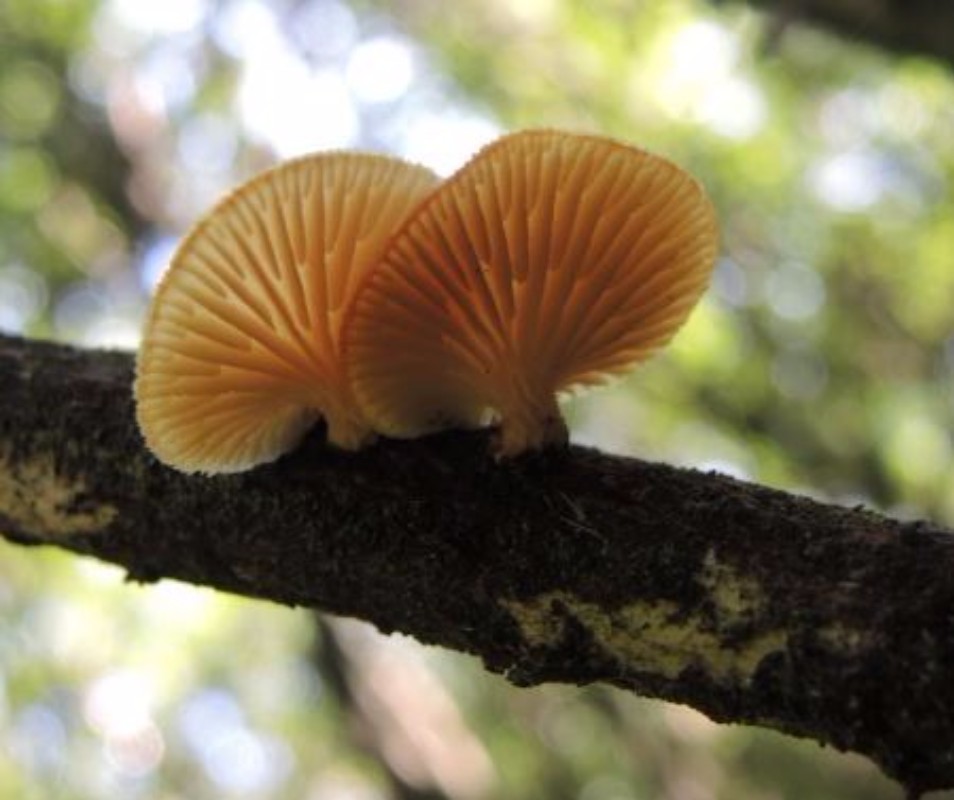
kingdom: Fungi
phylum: Basidiomycota
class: Agaricomycetes
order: Polyporales
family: Polyporaceae
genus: Neofavolus
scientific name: Neofavolus suavissimus
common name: anishat
